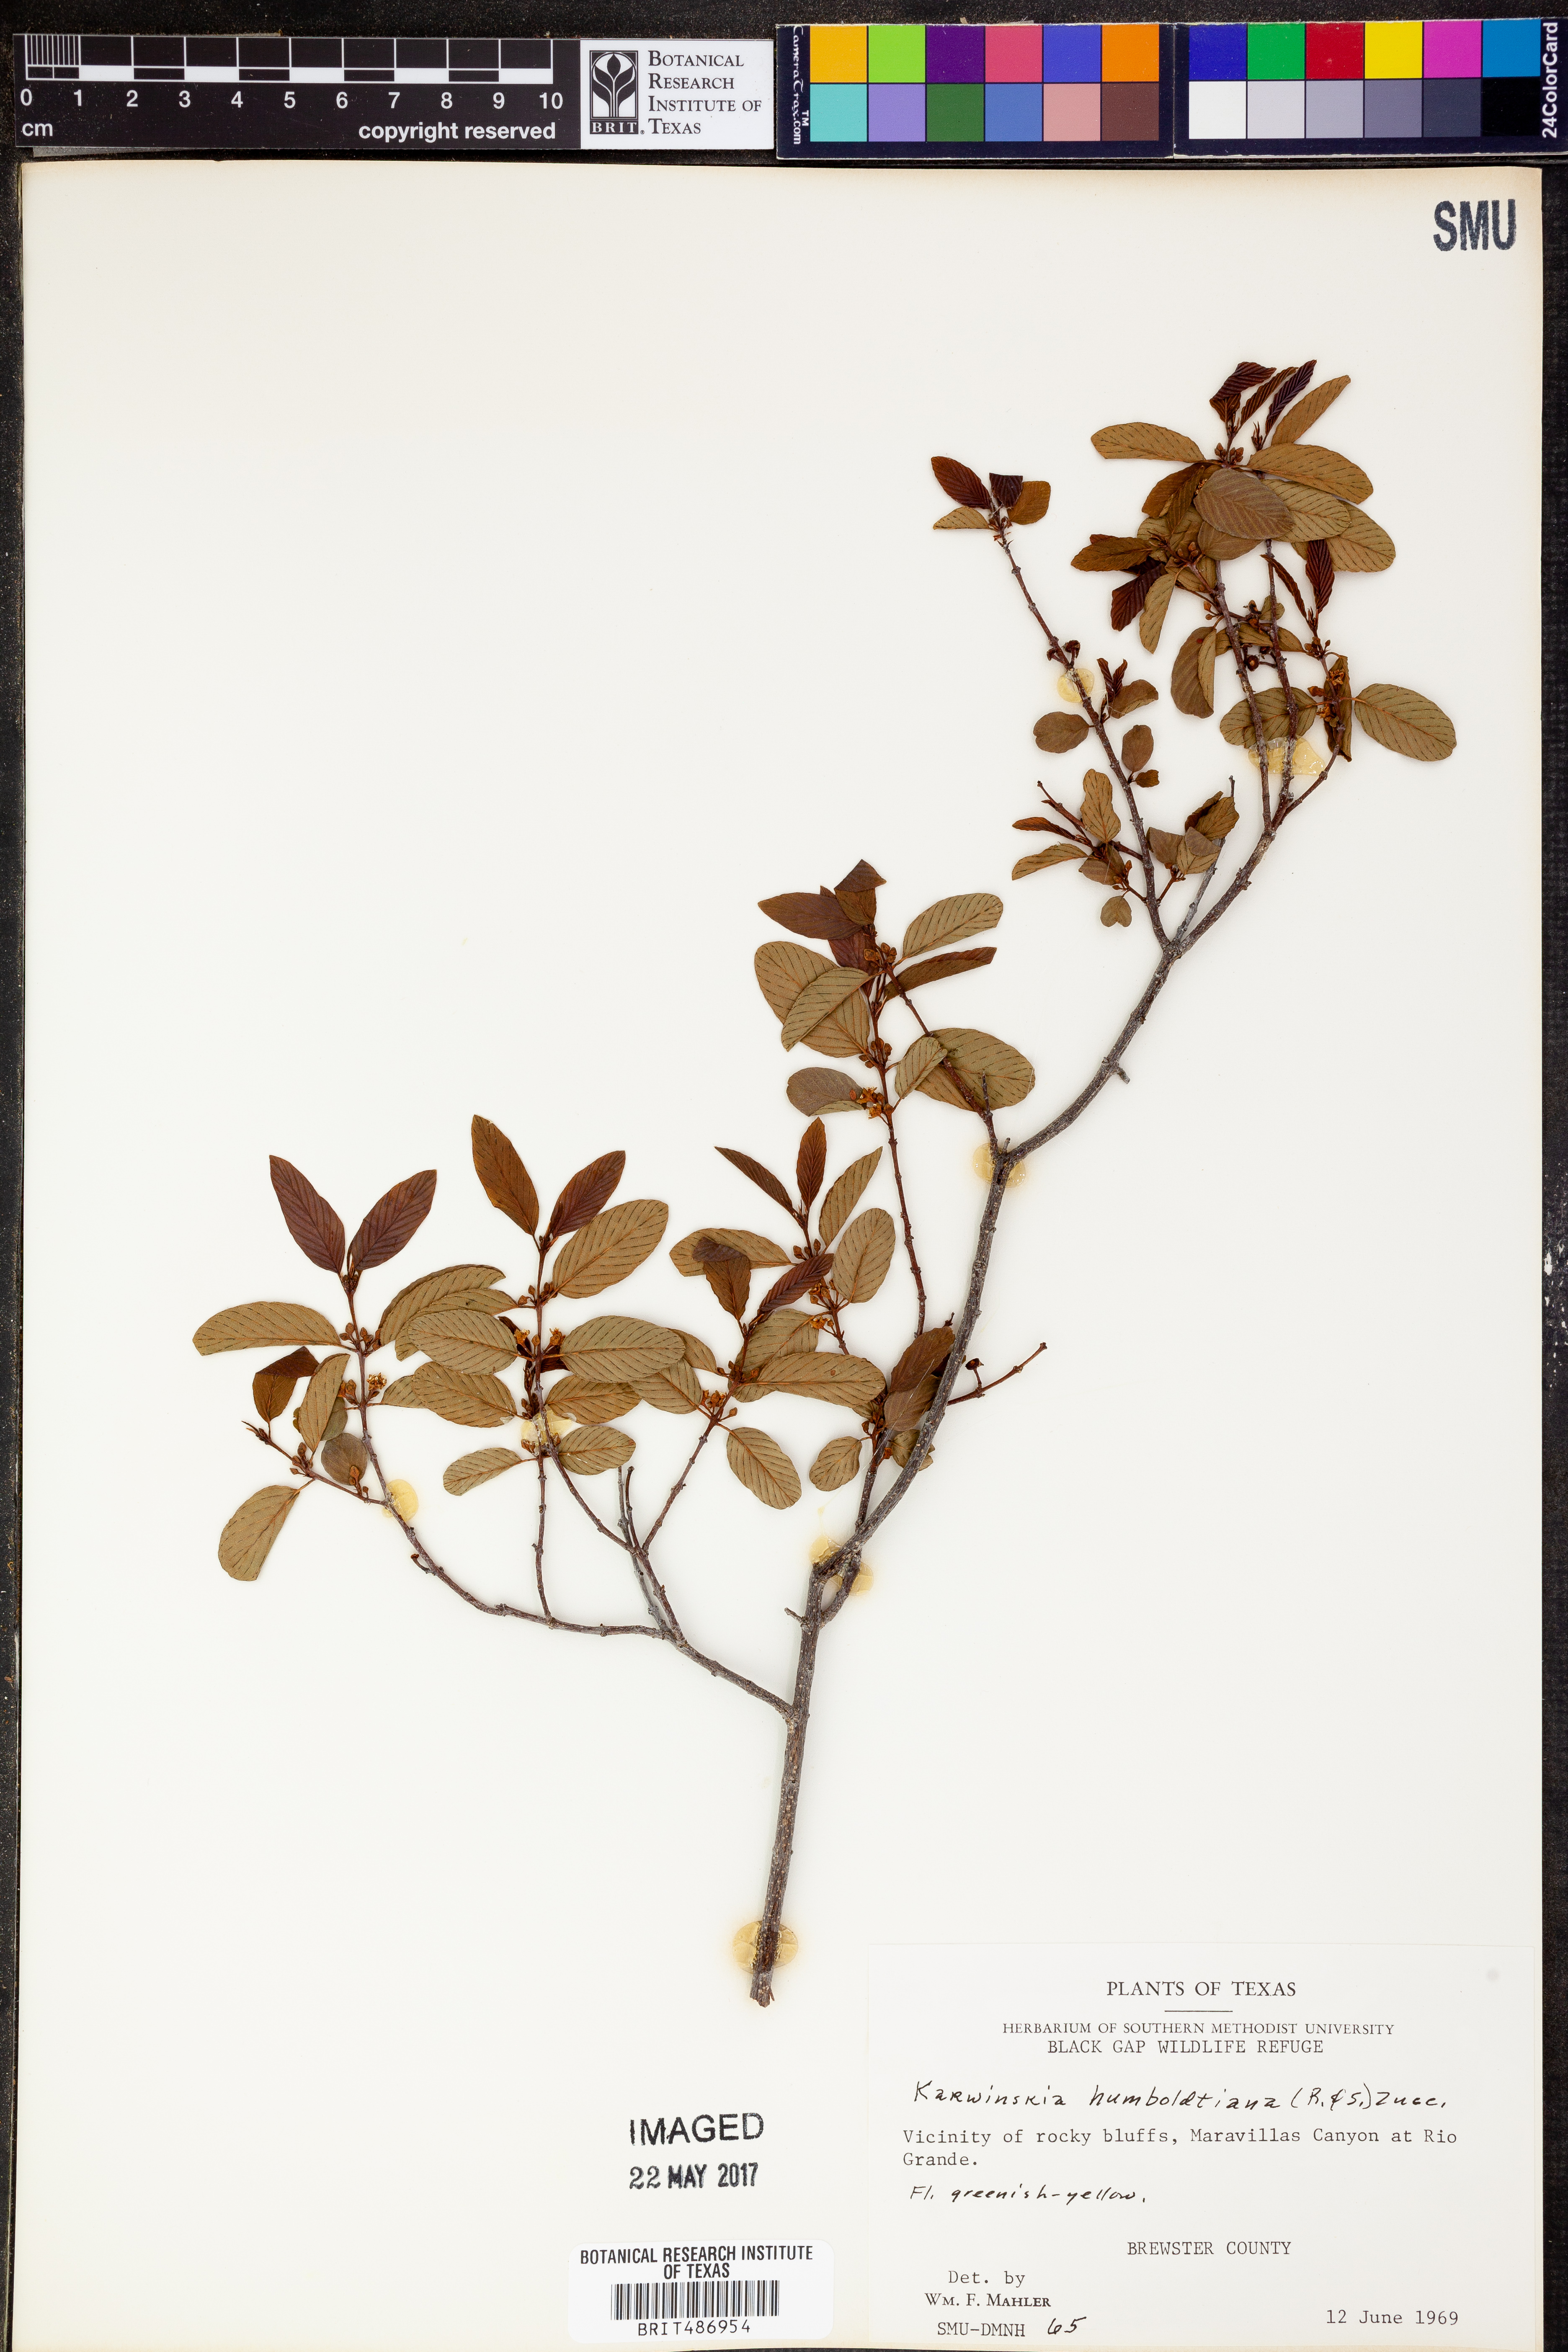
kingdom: Plantae
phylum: Tracheophyta
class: Magnoliopsida
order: Rosales
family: Rhamnaceae
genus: Karwinskia
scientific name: Karwinskia humboldtiana
